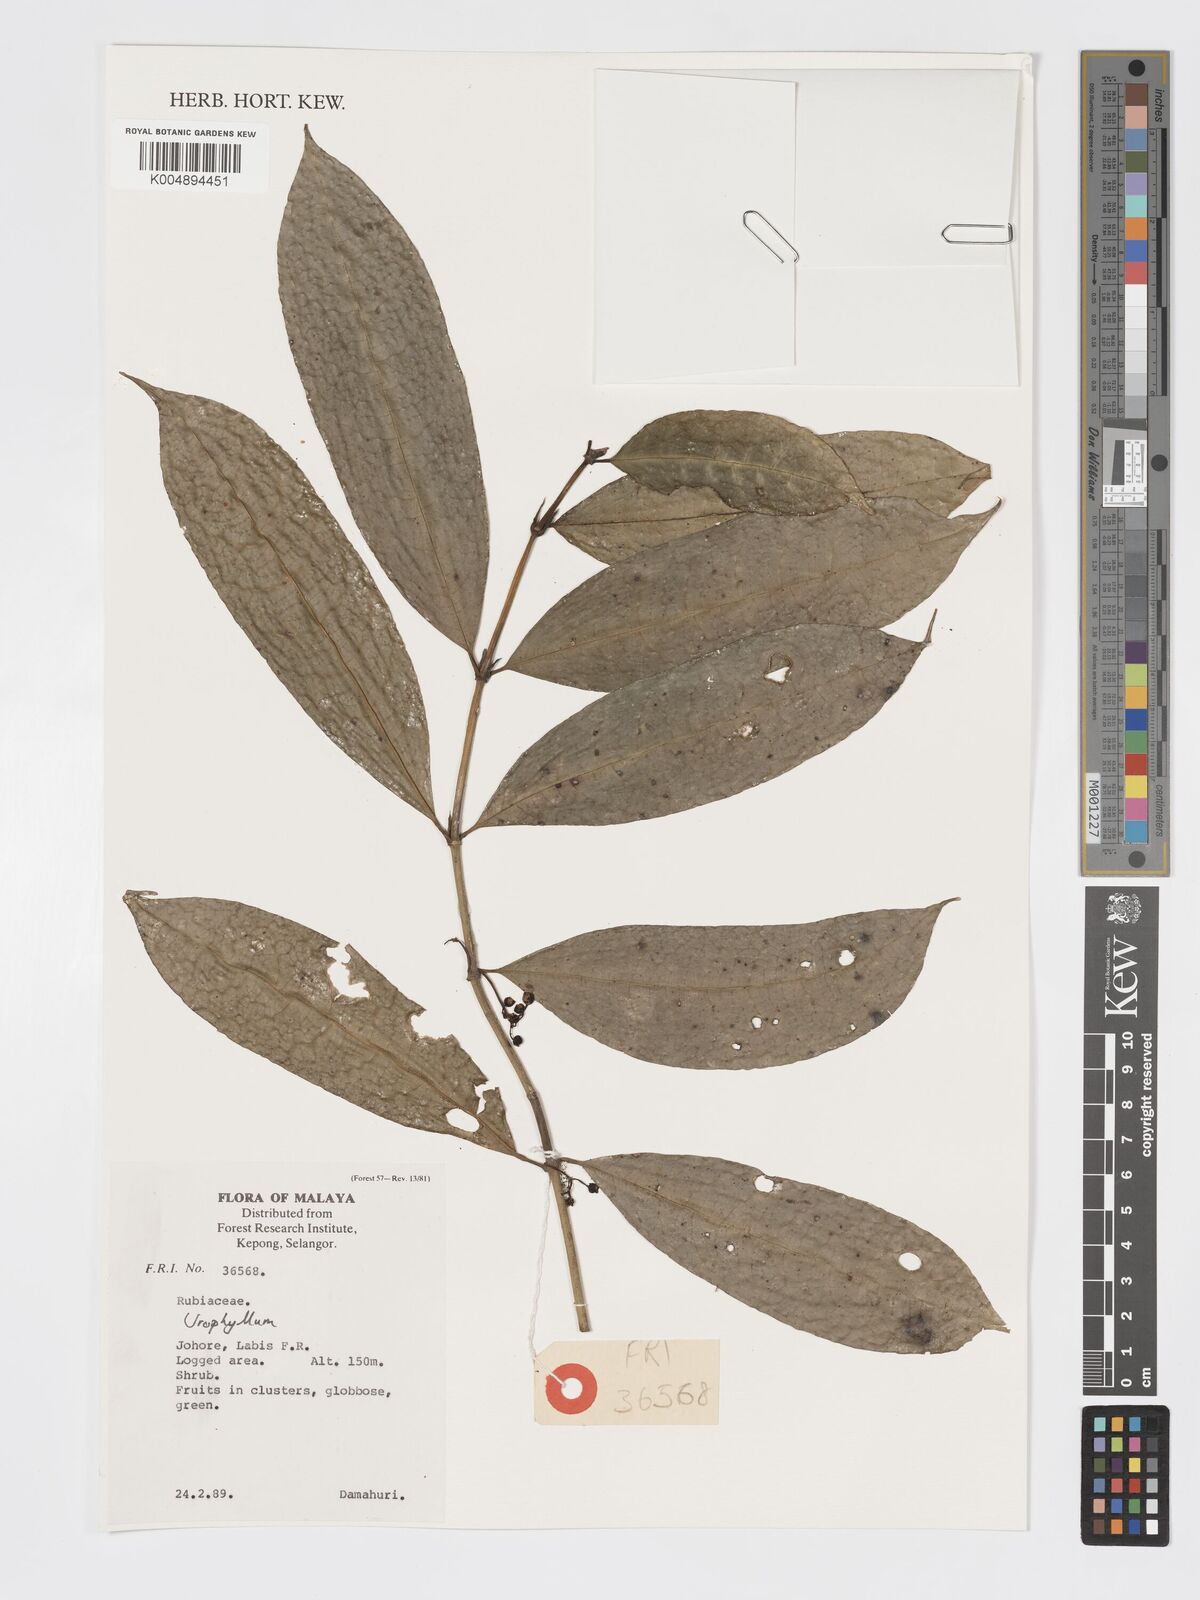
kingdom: Plantae
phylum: Tracheophyta
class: Magnoliopsida
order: Gentianales
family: Rubiaceae
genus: Urophyllum
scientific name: Urophyllum griffithianum
